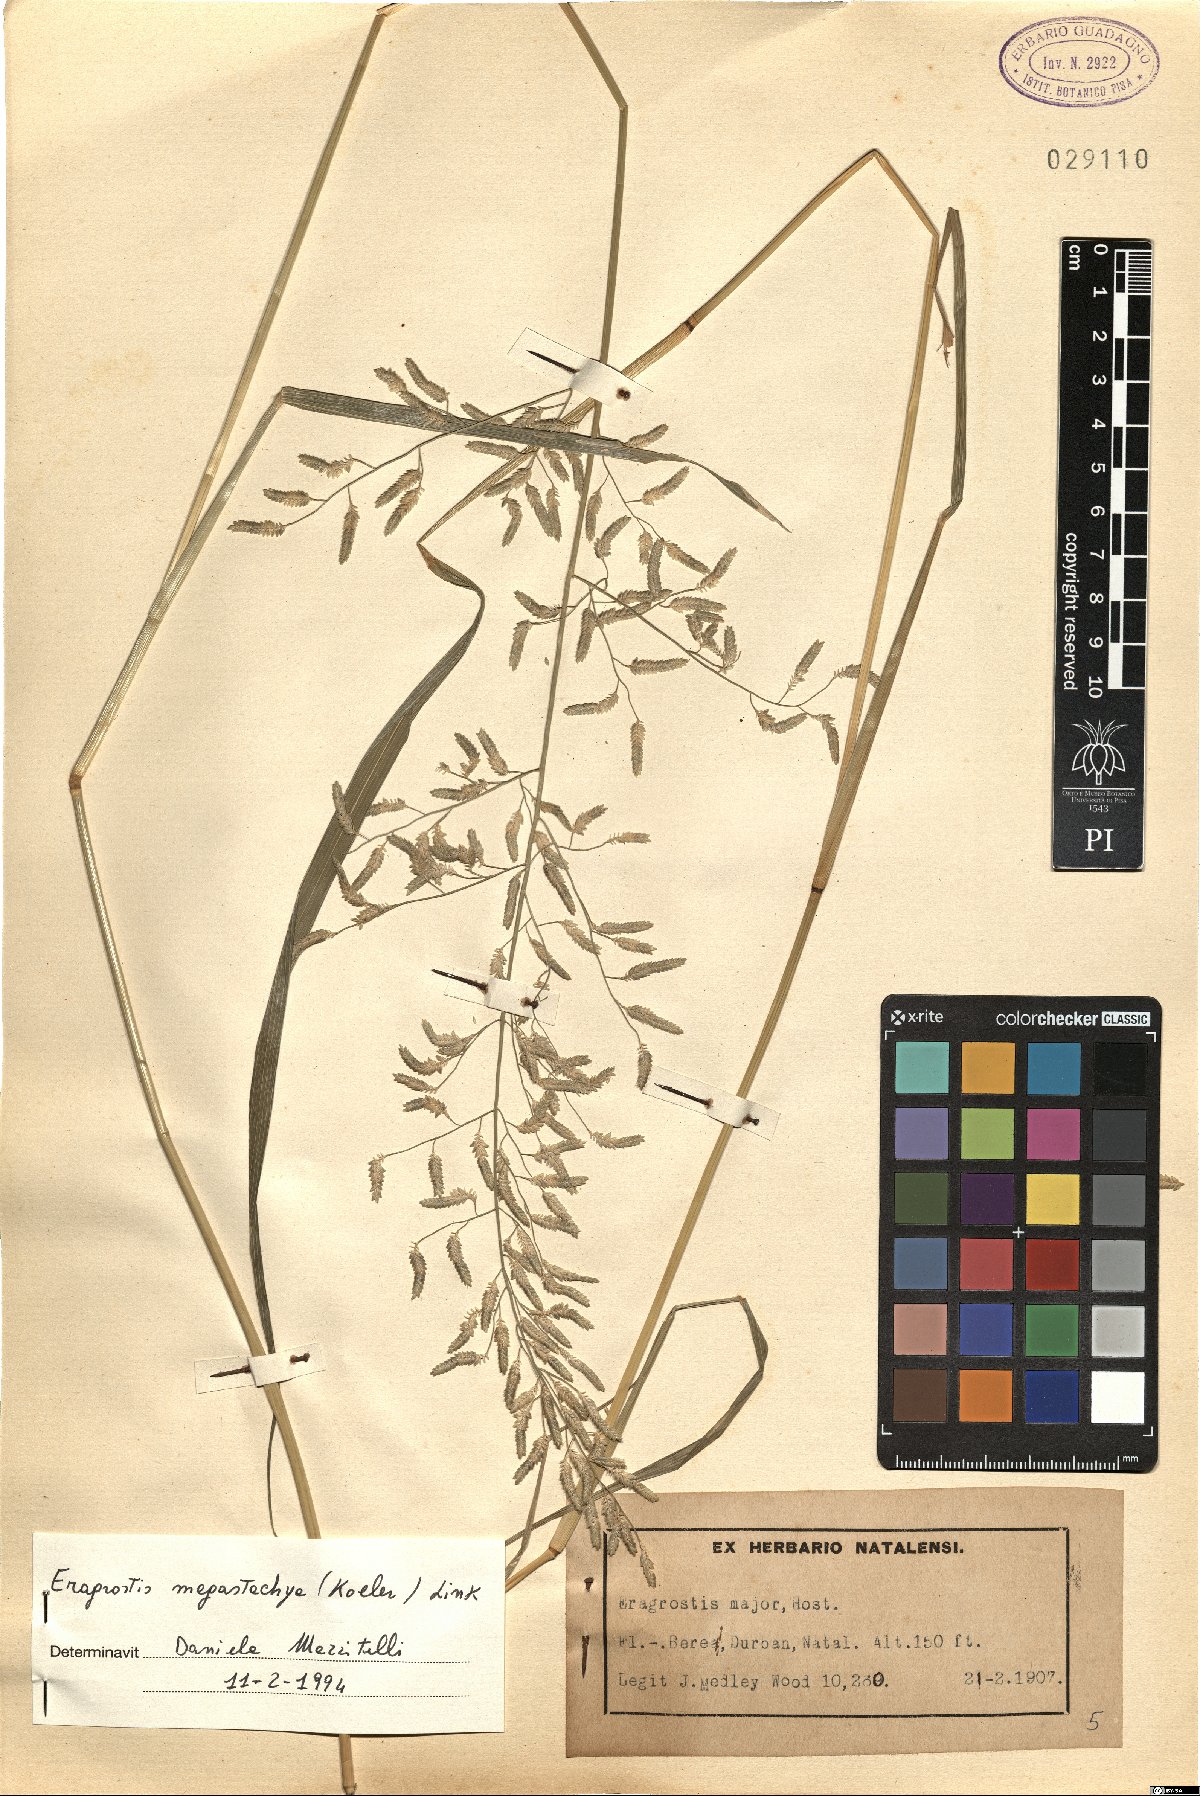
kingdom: Plantae
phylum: Tracheophyta
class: Liliopsida
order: Poales
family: Poaceae
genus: Eragrostis
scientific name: Eragrostis cilianensis
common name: Stinkgrass
